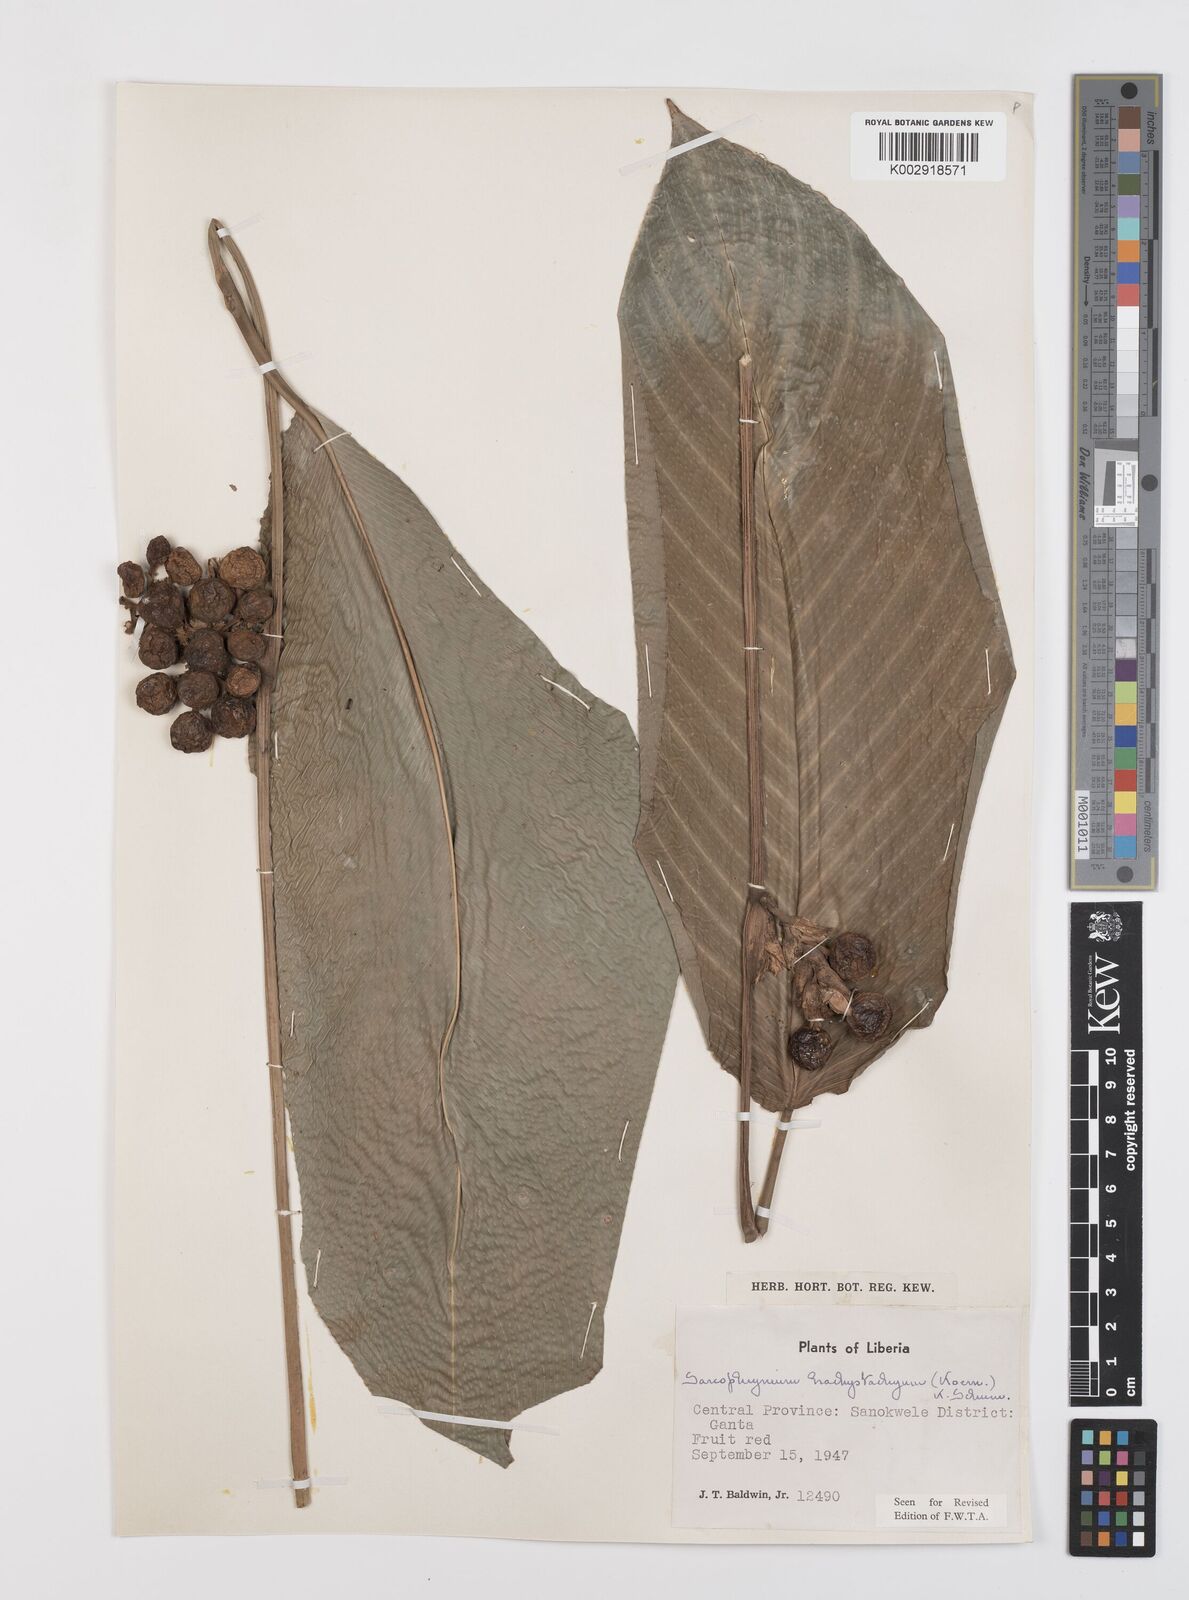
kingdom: Plantae
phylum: Tracheophyta
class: Liliopsida
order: Zingiberales
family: Marantaceae
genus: Sarcophrynium
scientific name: Sarcophrynium brachystachyum
